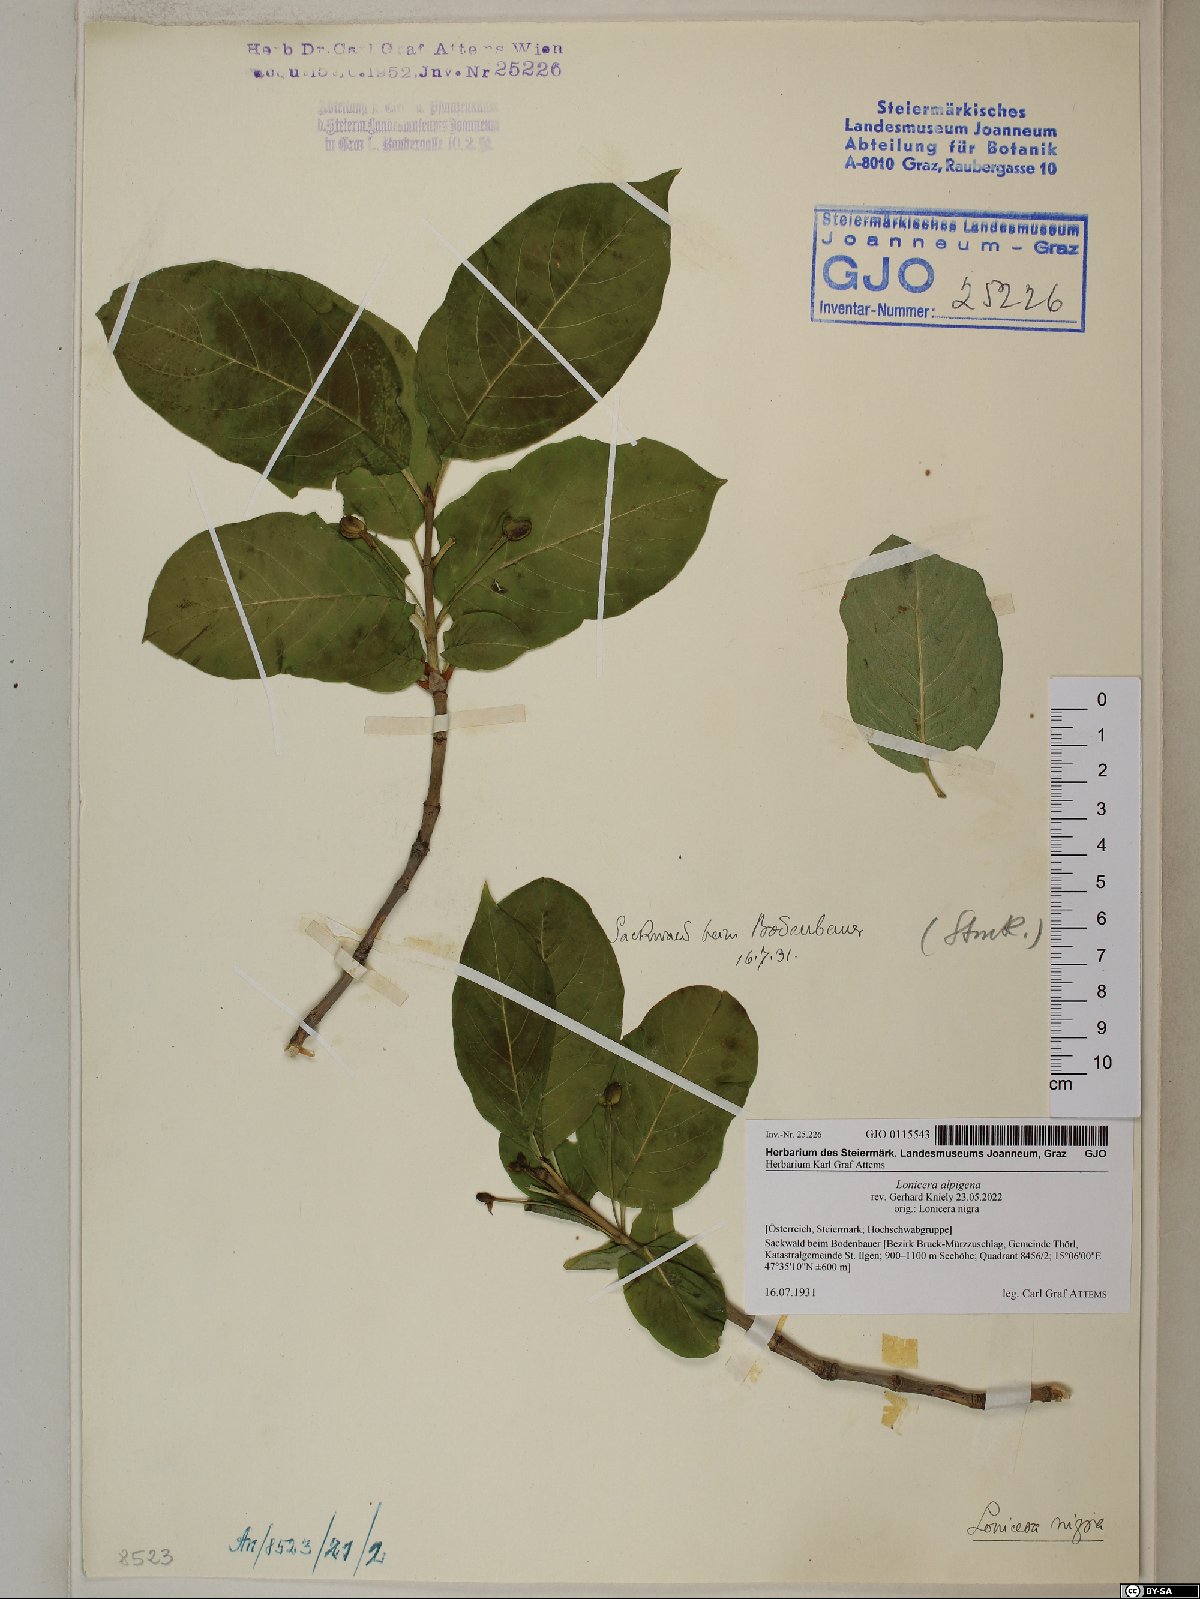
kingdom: Plantae
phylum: Tracheophyta
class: Magnoliopsida
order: Dipsacales
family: Caprifoliaceae
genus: Lonicera
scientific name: Lonicera alpigena
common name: Alpine honeysuckle
